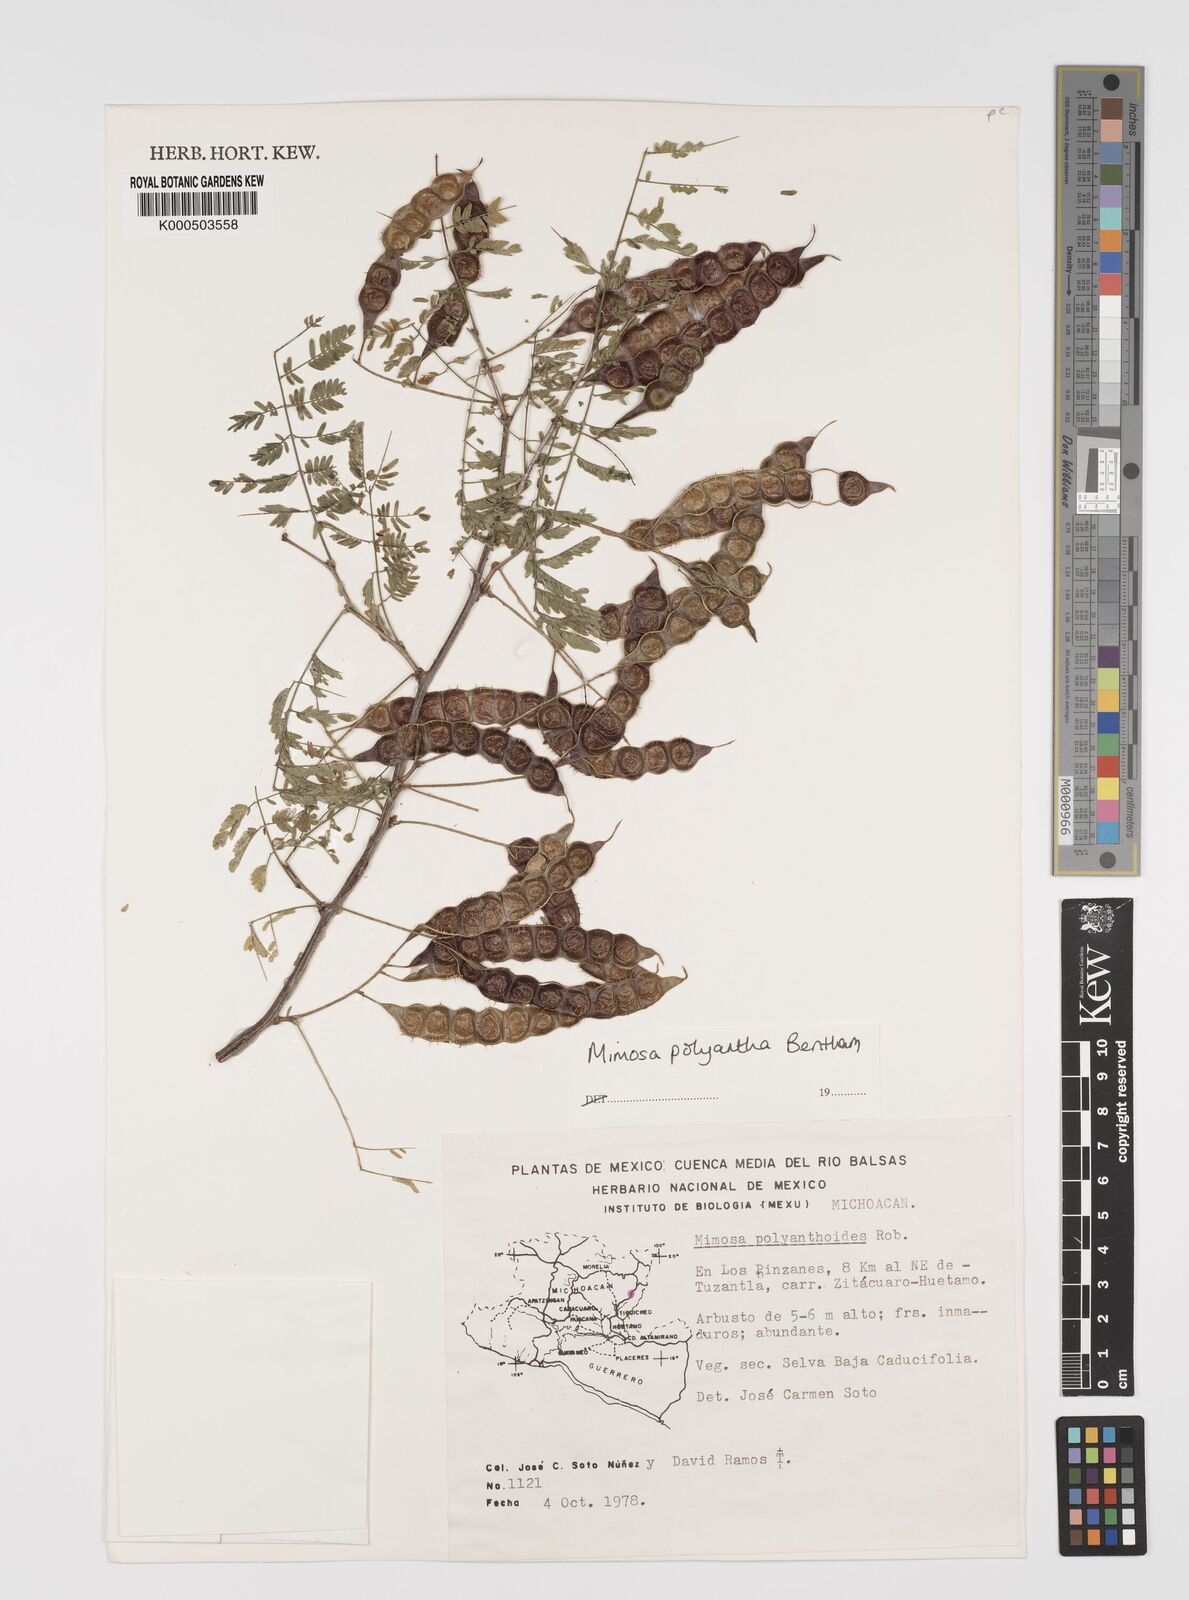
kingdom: Plantae
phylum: Tracheophyta
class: Magnoliopsida
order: Fabales
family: Fabaceae
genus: Mimosa
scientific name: Mimosa polyantha
